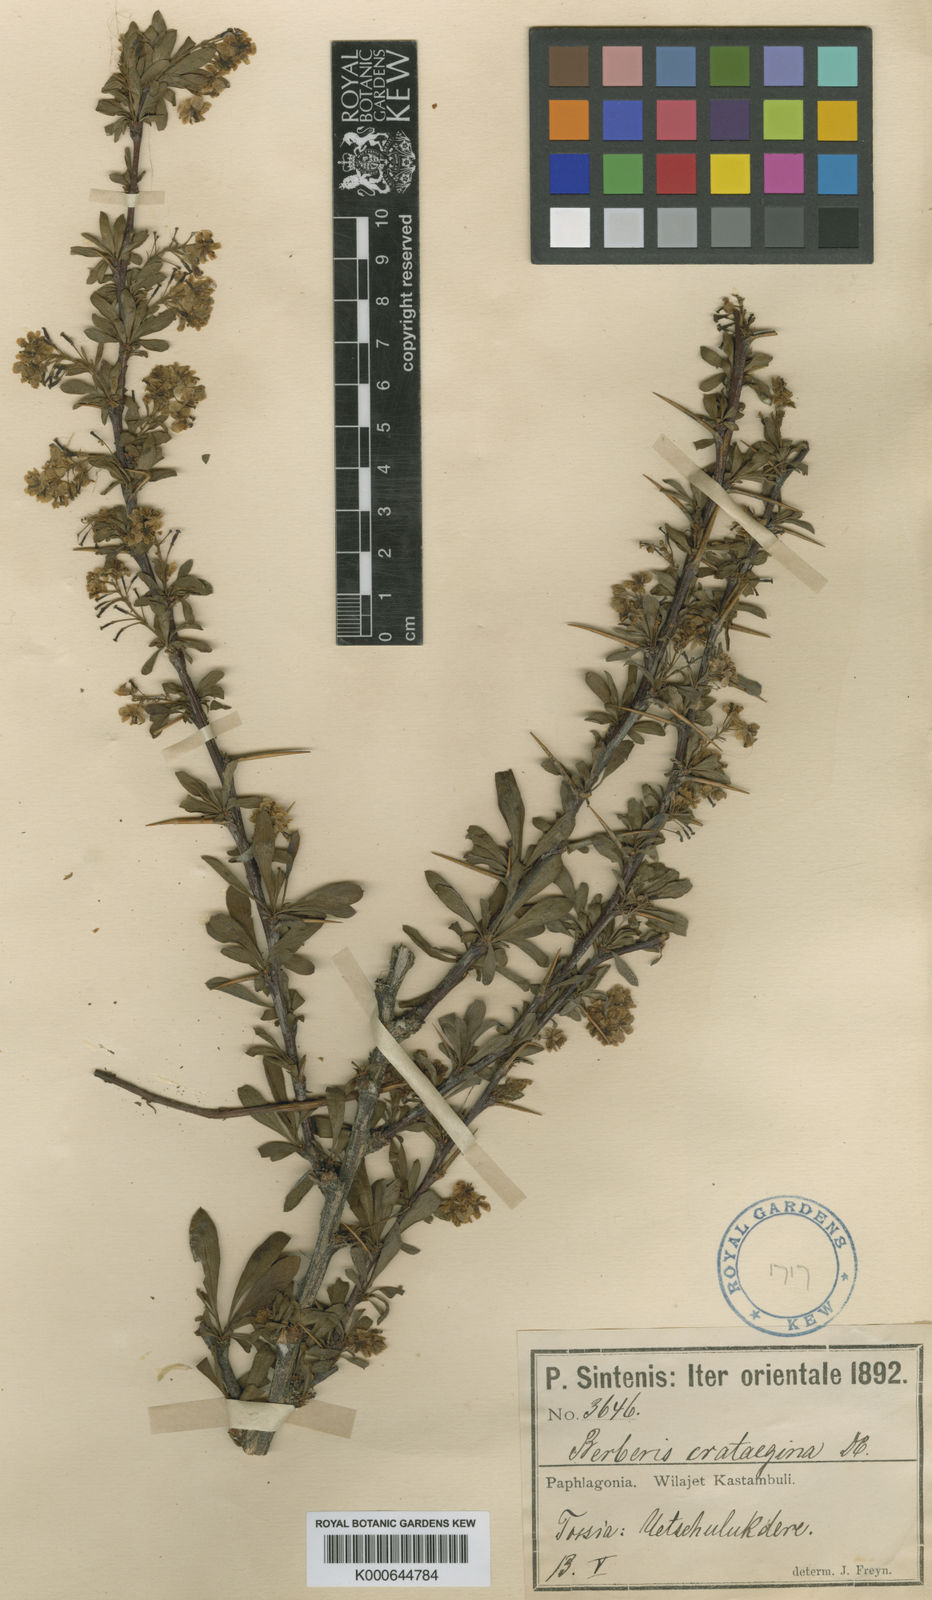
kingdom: Plantae
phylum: Tracheophyta
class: Magnoliopsida
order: Ranunculales
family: Berberidaceae
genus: Berberis
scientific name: Berberis crataegina
